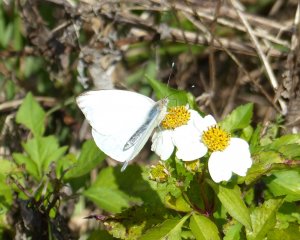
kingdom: Animalia
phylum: Arthropoda
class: Insecta
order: Lepidoptera
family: Pieridae
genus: Ascia
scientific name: Ascia monuste
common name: Great Southern White
